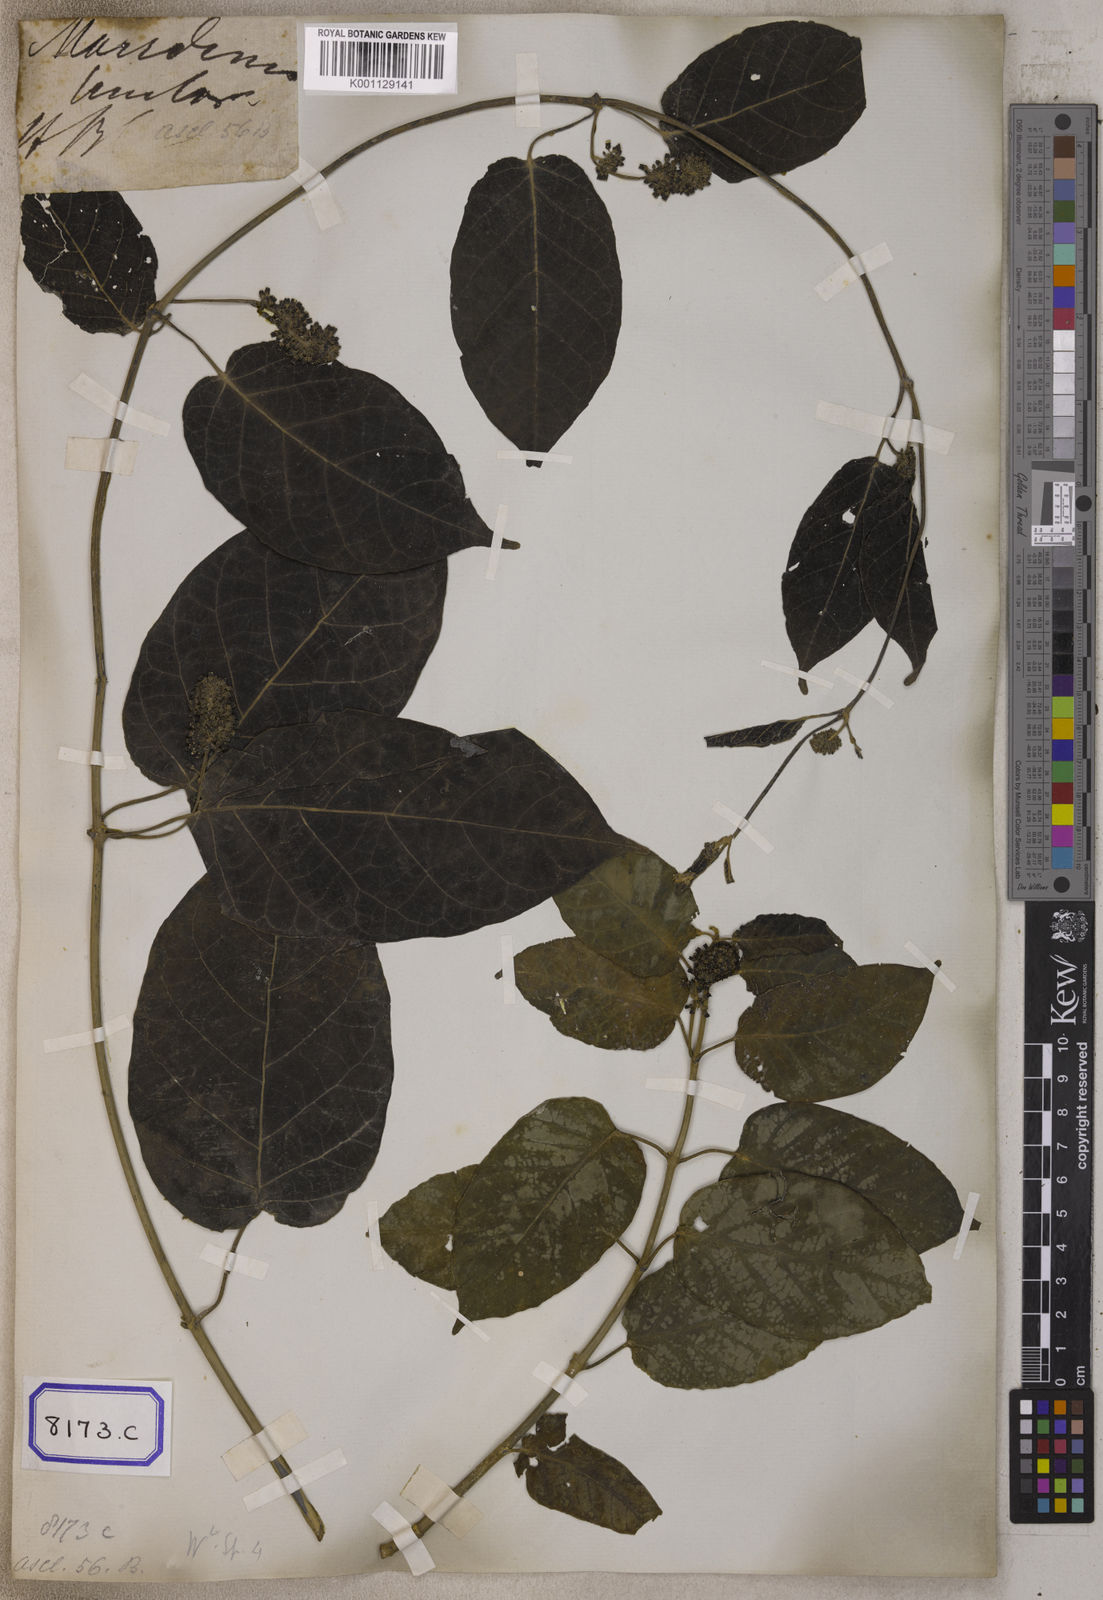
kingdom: Plantae
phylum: Tracheophyta
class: Magnoliopsida
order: Gentianales
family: Apocynaceae
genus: Marsdenia
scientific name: Marsdenia tinctoria
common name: Climbing-indigo
